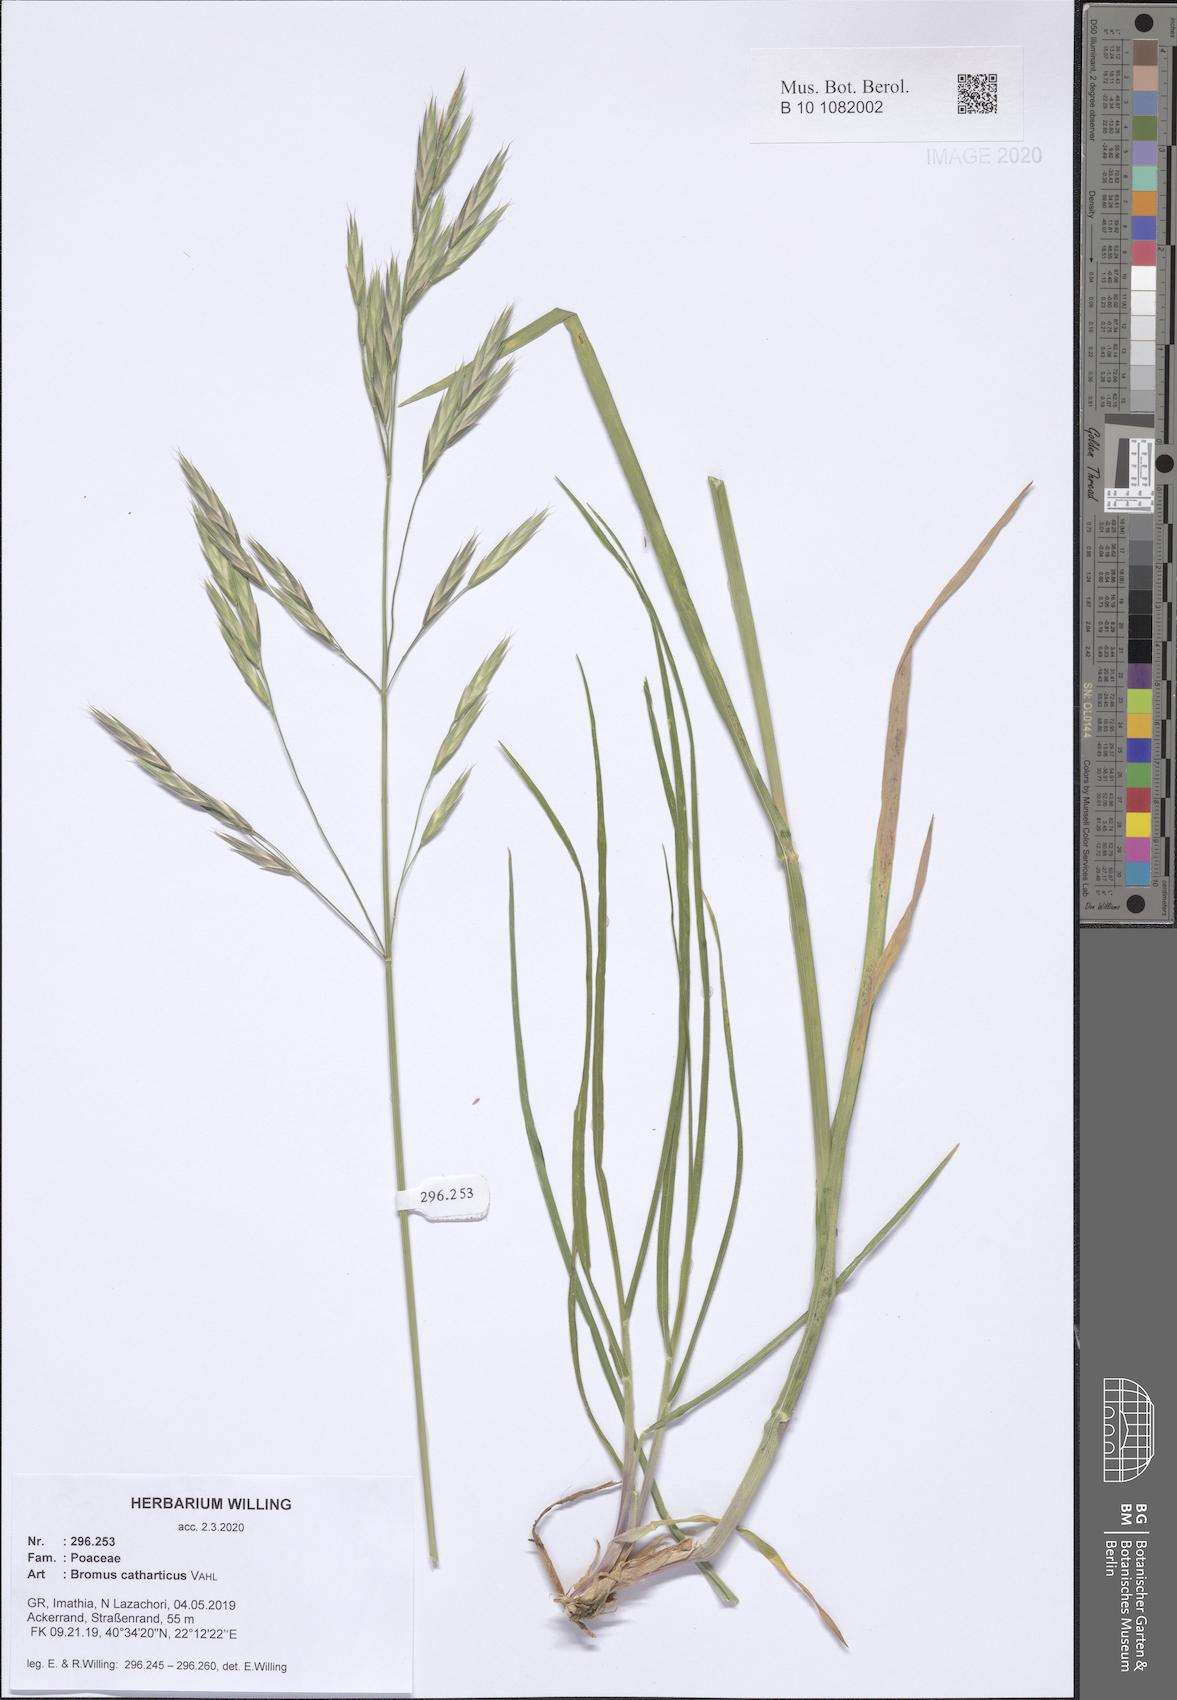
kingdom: Plantae
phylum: Tracheophyta
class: Liliopsida
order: Poales
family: Poaceae
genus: Bromus
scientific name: Bromus catharticus
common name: Rescuegrass
